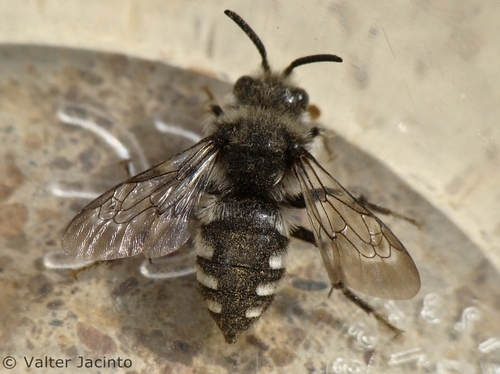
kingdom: Animalia
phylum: Arthropoda
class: Insecta
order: Hymenoptera
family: Apidae
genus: Melecta
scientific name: Melecta albifrons
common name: Common mourning bee
